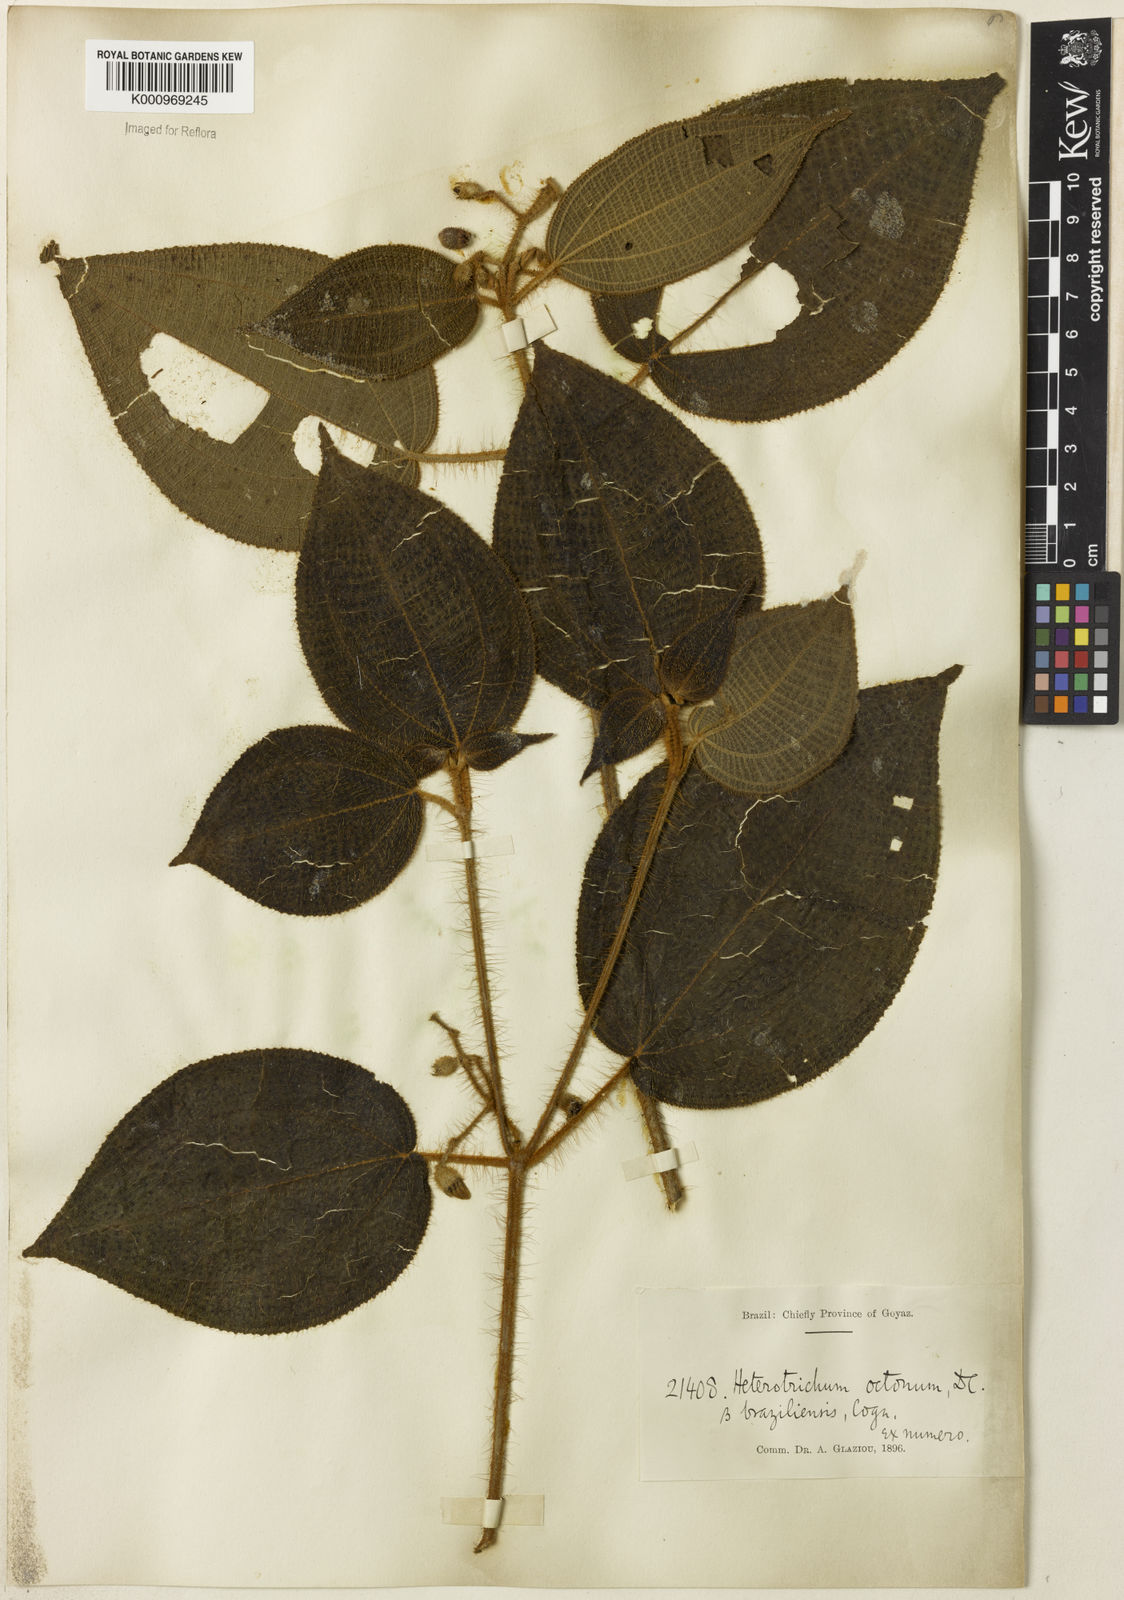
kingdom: Plantae
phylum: Tracheophyta
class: Magnoliopsida
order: Myrtales
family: Melastomataceae
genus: Miconia
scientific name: Miconia octona
